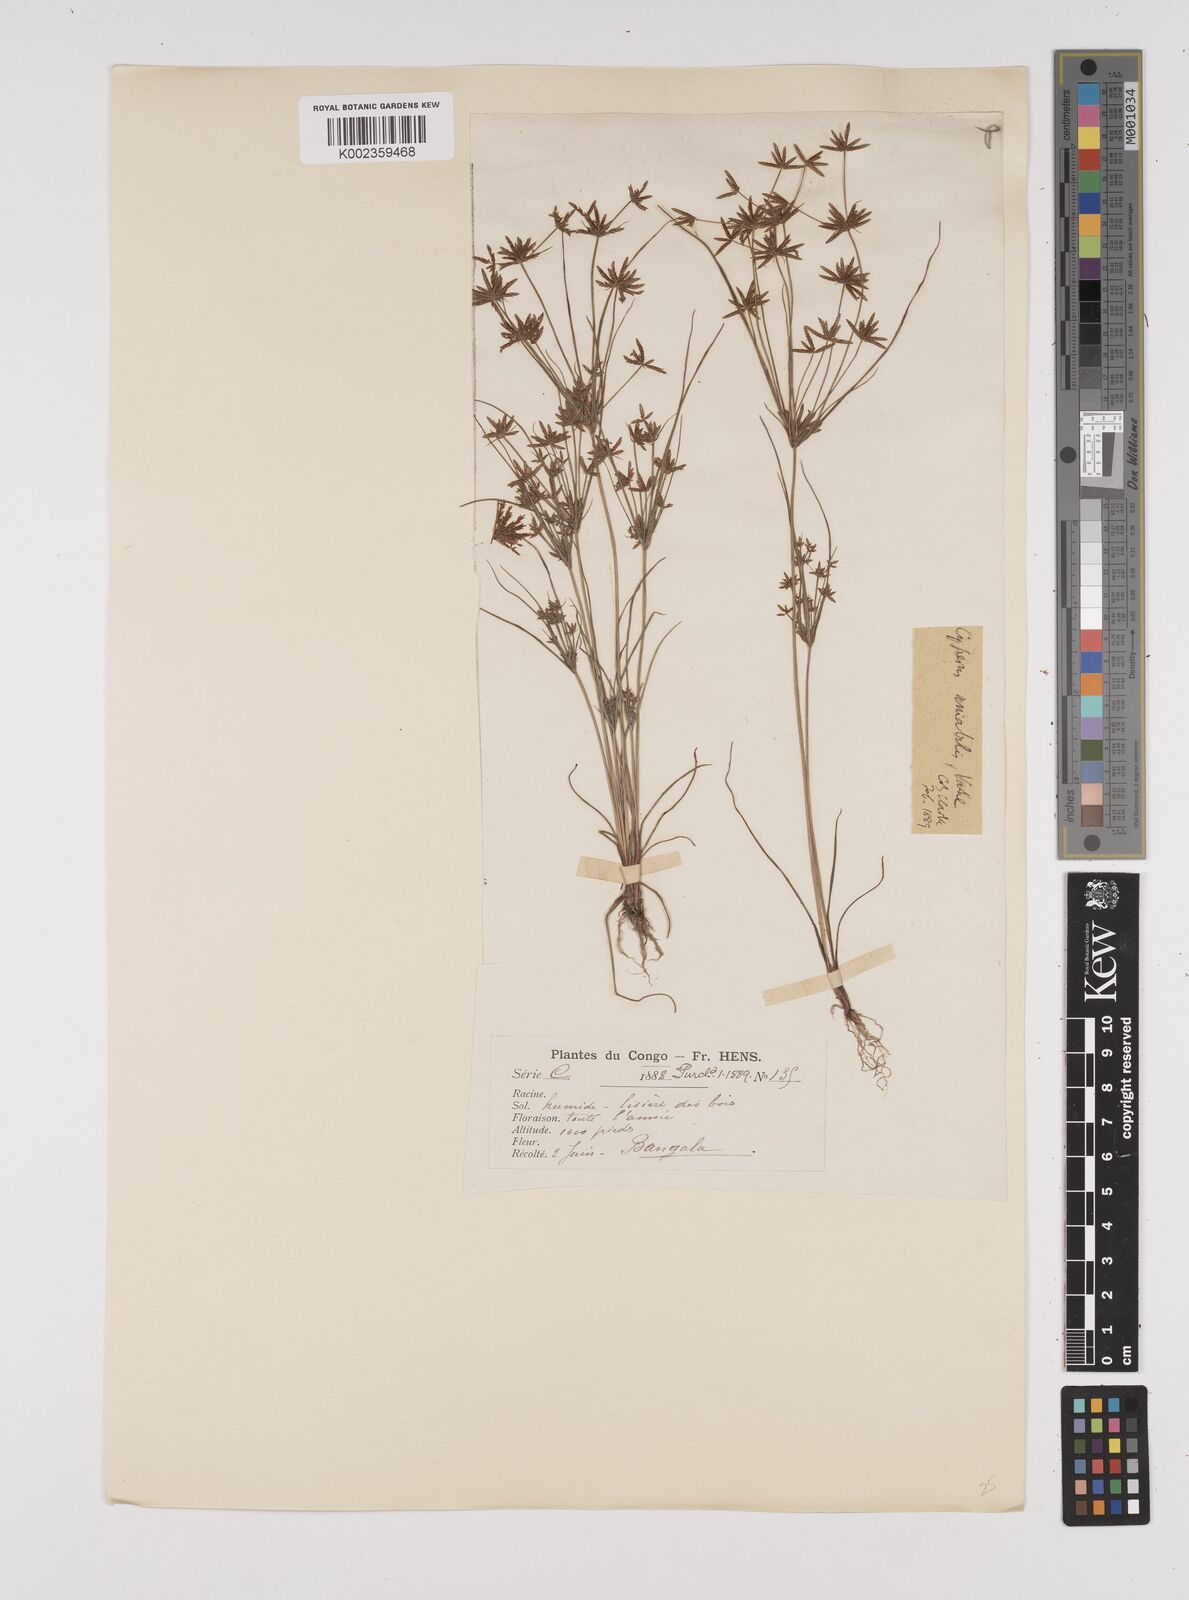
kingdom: Plantae
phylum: Tracheophyta
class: Liliopsida
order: Poales
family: Cyperaceae
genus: Cyperus
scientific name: Cyperus amabilis
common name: Foothill flat sedge
